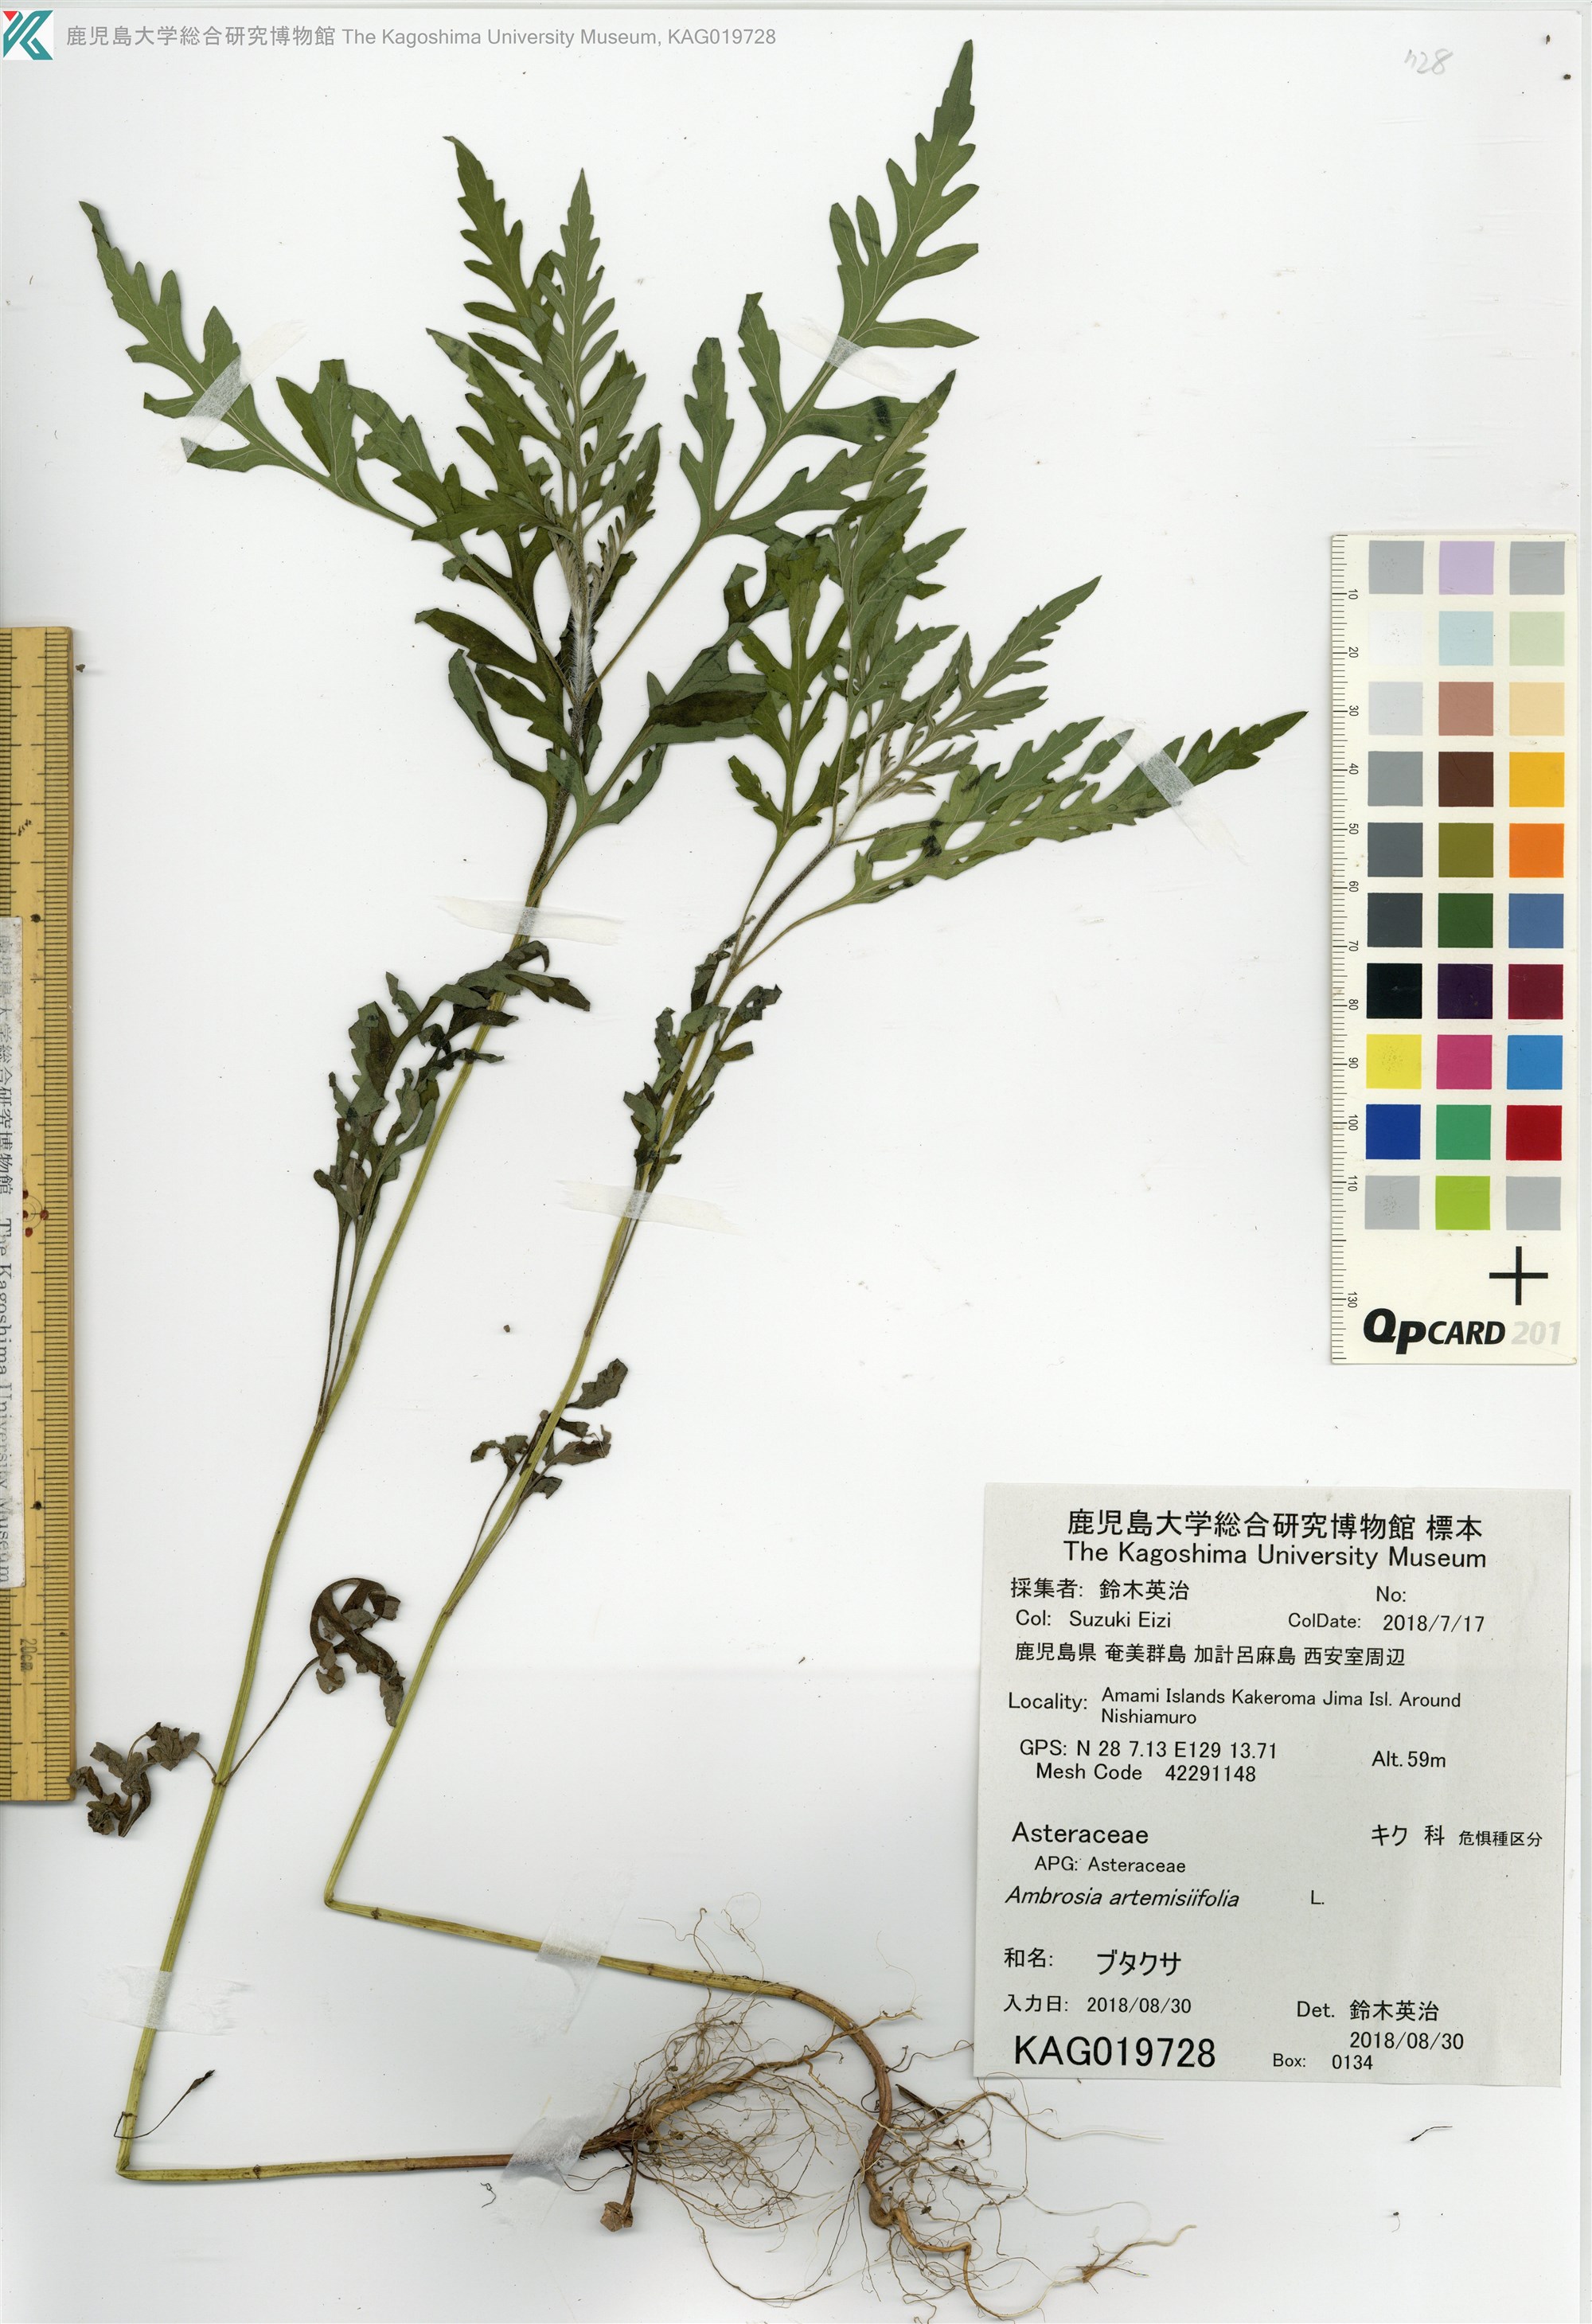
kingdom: Plantae
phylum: Tracheophyta
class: Magnoliopsida
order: Asterales
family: Asteraceae
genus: Ambrosia
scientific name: Ambrosia artemisiifolia
